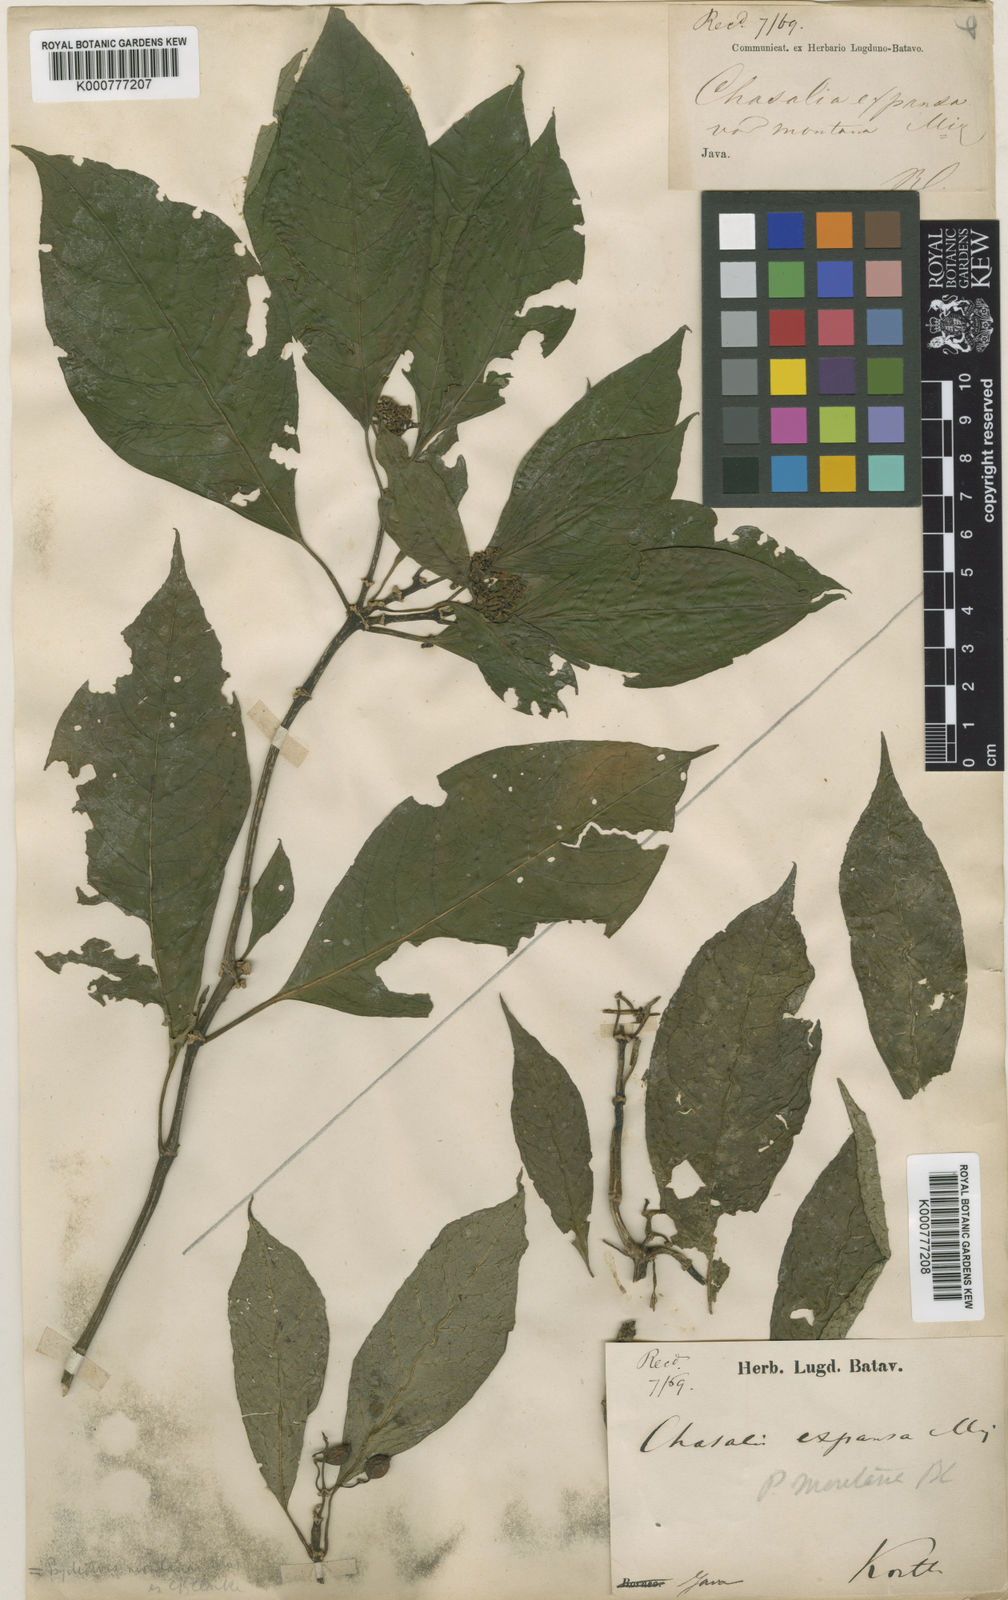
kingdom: Plantae
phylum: Tracheophyta
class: Magnoliopsida
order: Gentianales
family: Rubiaceae
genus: Eumachia
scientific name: Eumachia montana
